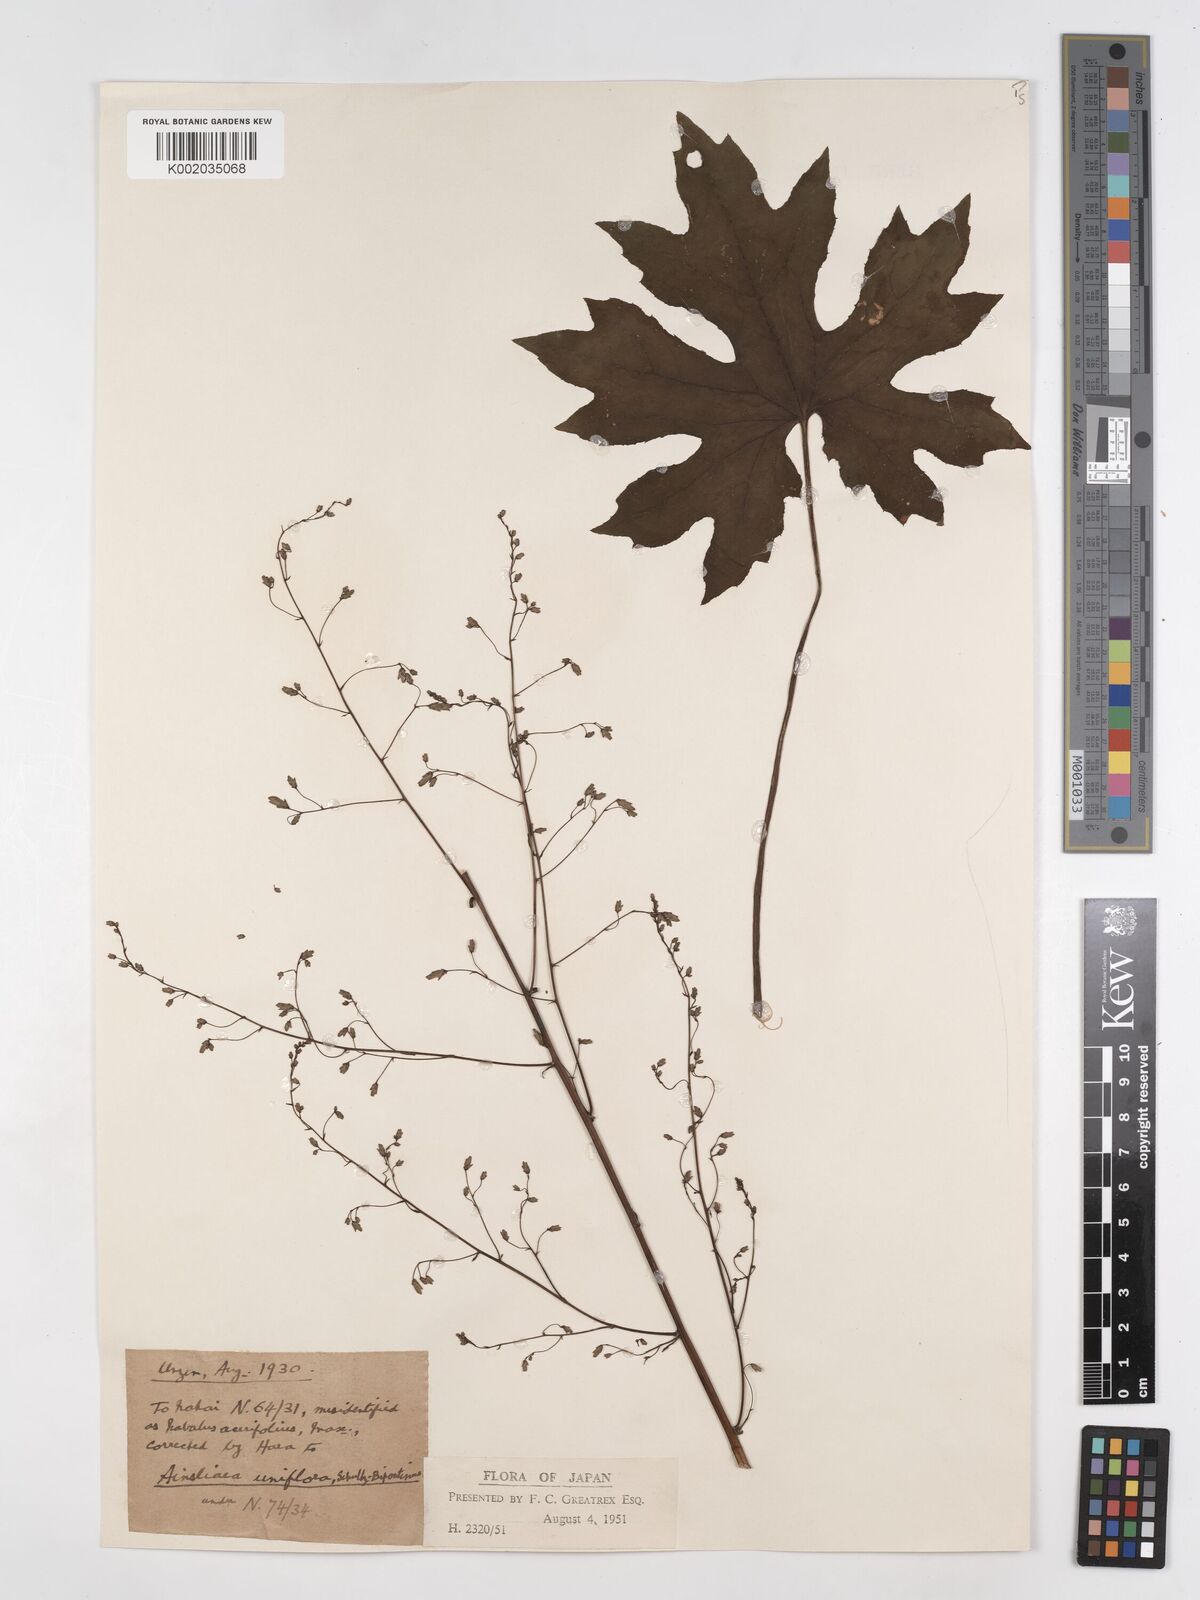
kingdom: Plantae
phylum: Tracheophyta
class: Magnoliopsida
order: Asterales
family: Asteraceae
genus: Ainsliaea
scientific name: Ainsliaea uniflora
